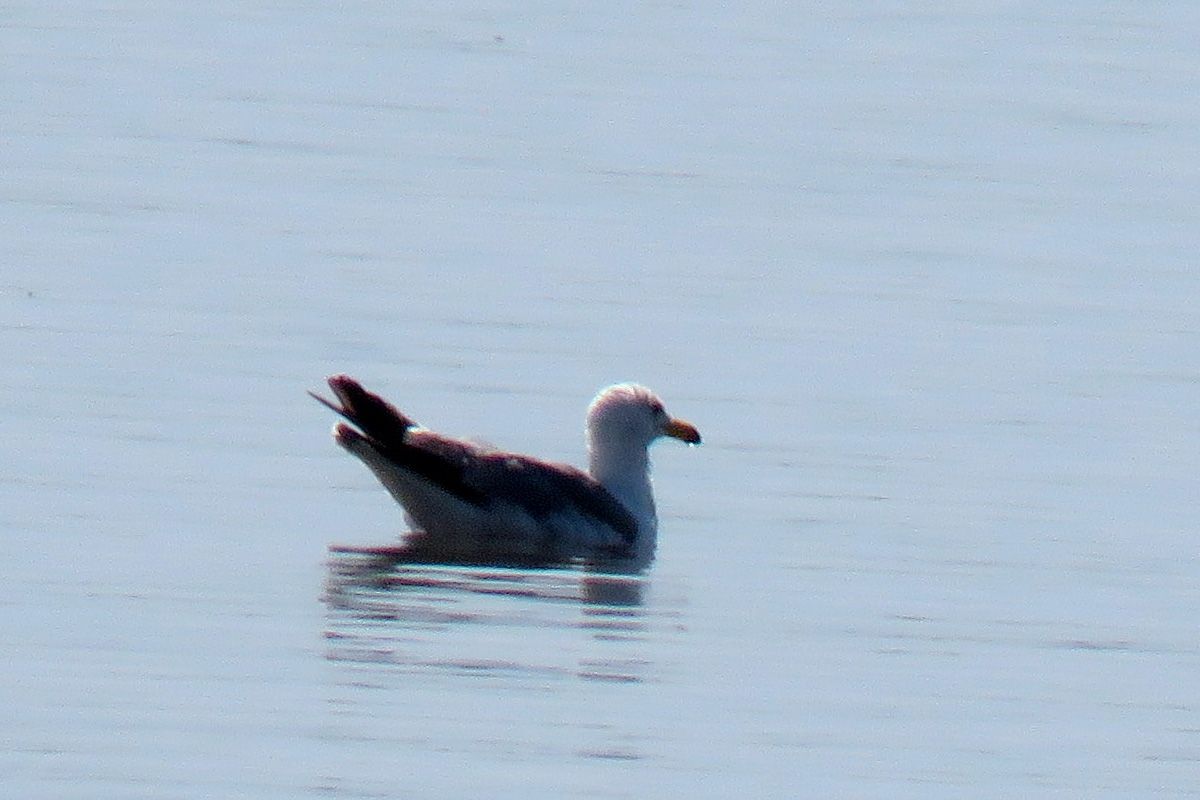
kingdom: Animalia
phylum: Chordata
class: Aves
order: Charadriiformes
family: Laridae
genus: Larus
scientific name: Larus armenicus
